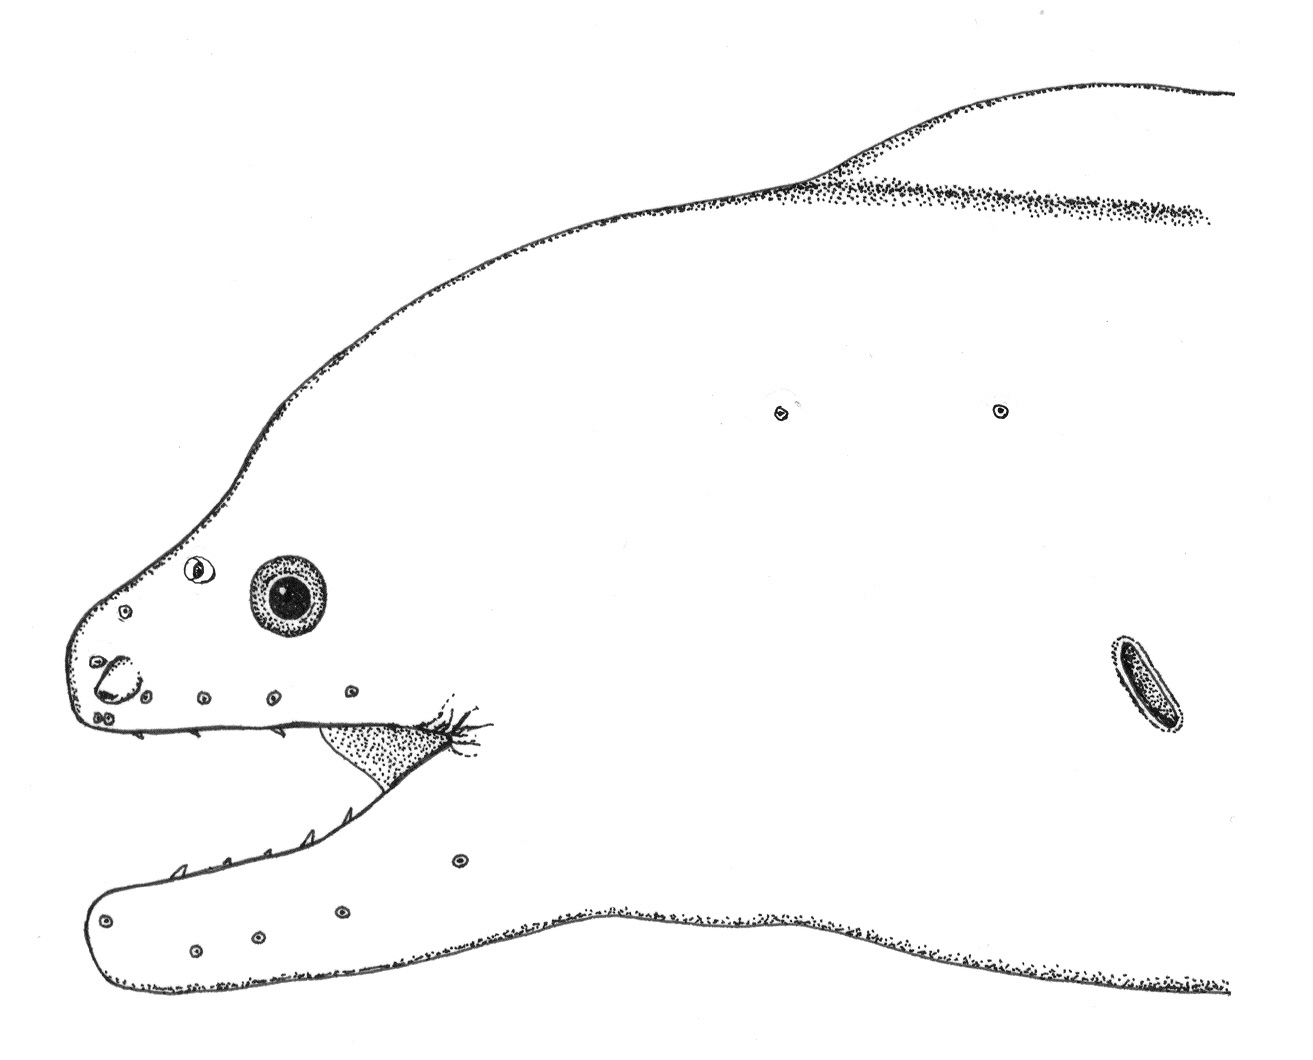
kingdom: Animalia
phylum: Chordata
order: Anguilliformes
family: Muraenidae
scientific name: Muraenidae
